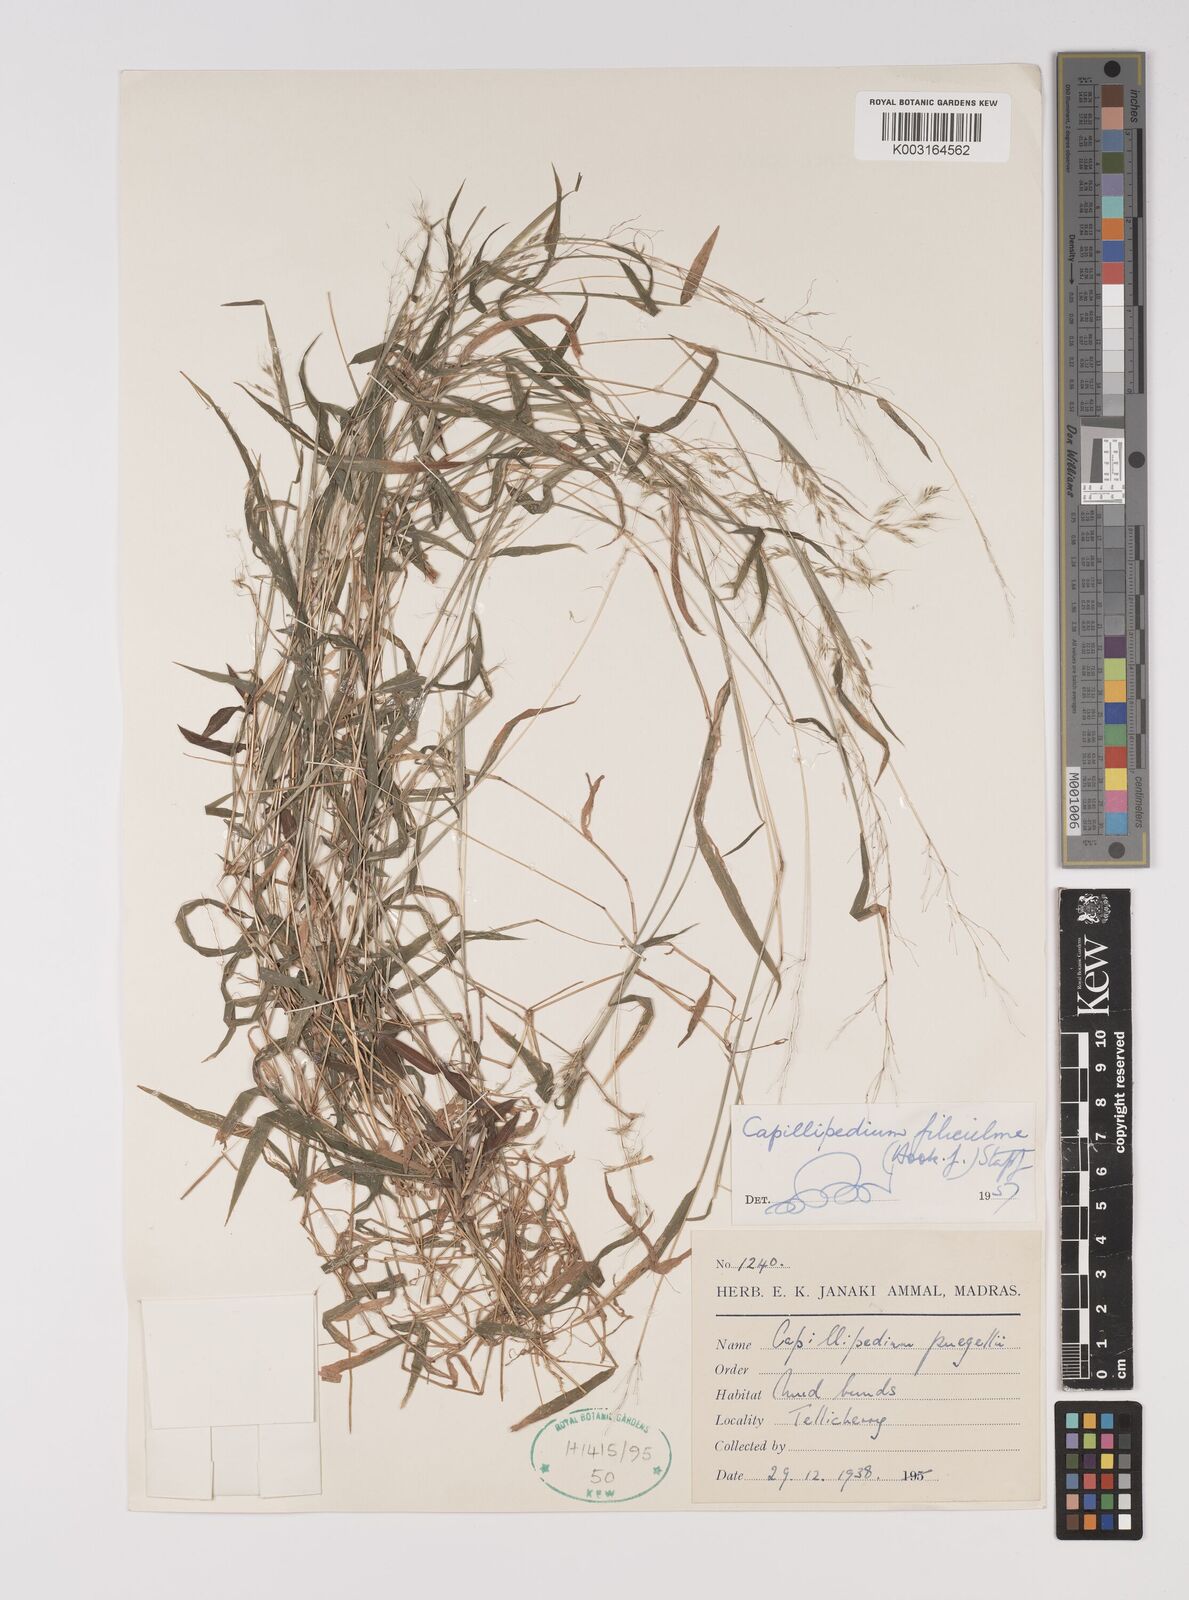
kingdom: Plantae
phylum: Tracheophyta
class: Liliopsida
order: Poales
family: Poaceae
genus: Capillipedium
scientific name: Capillipedium filiculme
